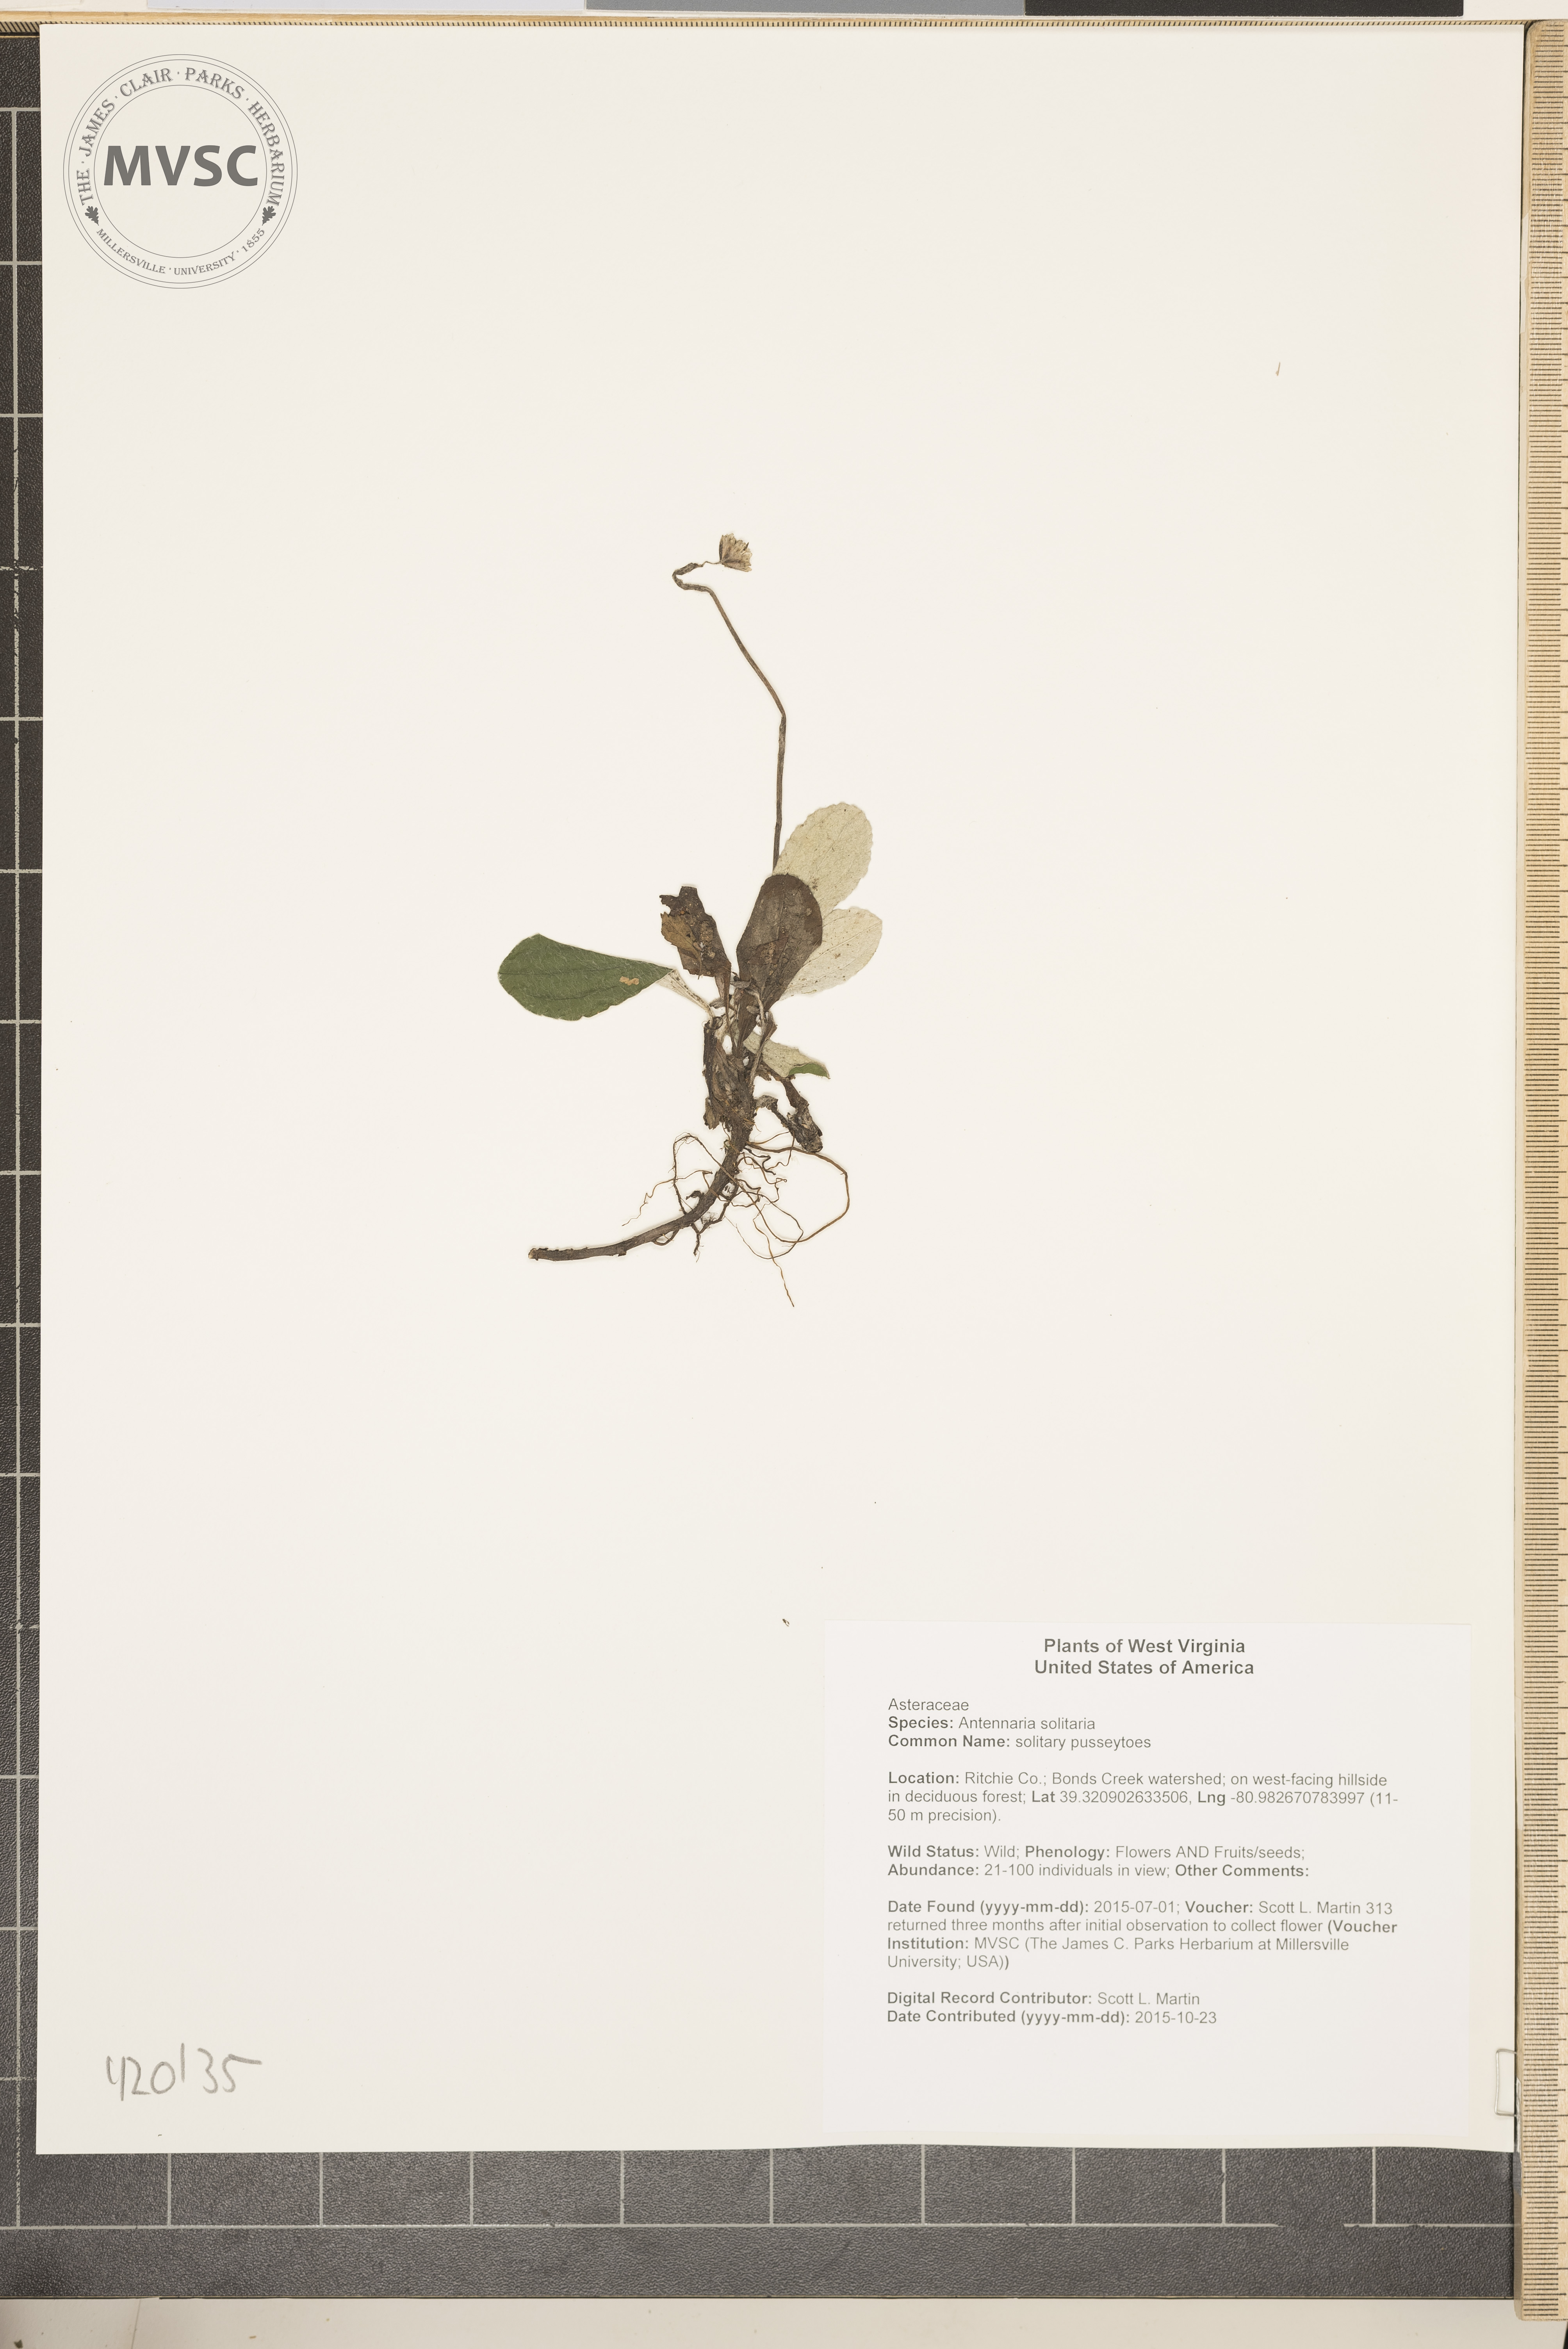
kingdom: Plantae
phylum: Tracheophyta
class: Magnoliopsida
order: Asterales
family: Asteraceae
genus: Antennaria
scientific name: Antennaria solitaria
